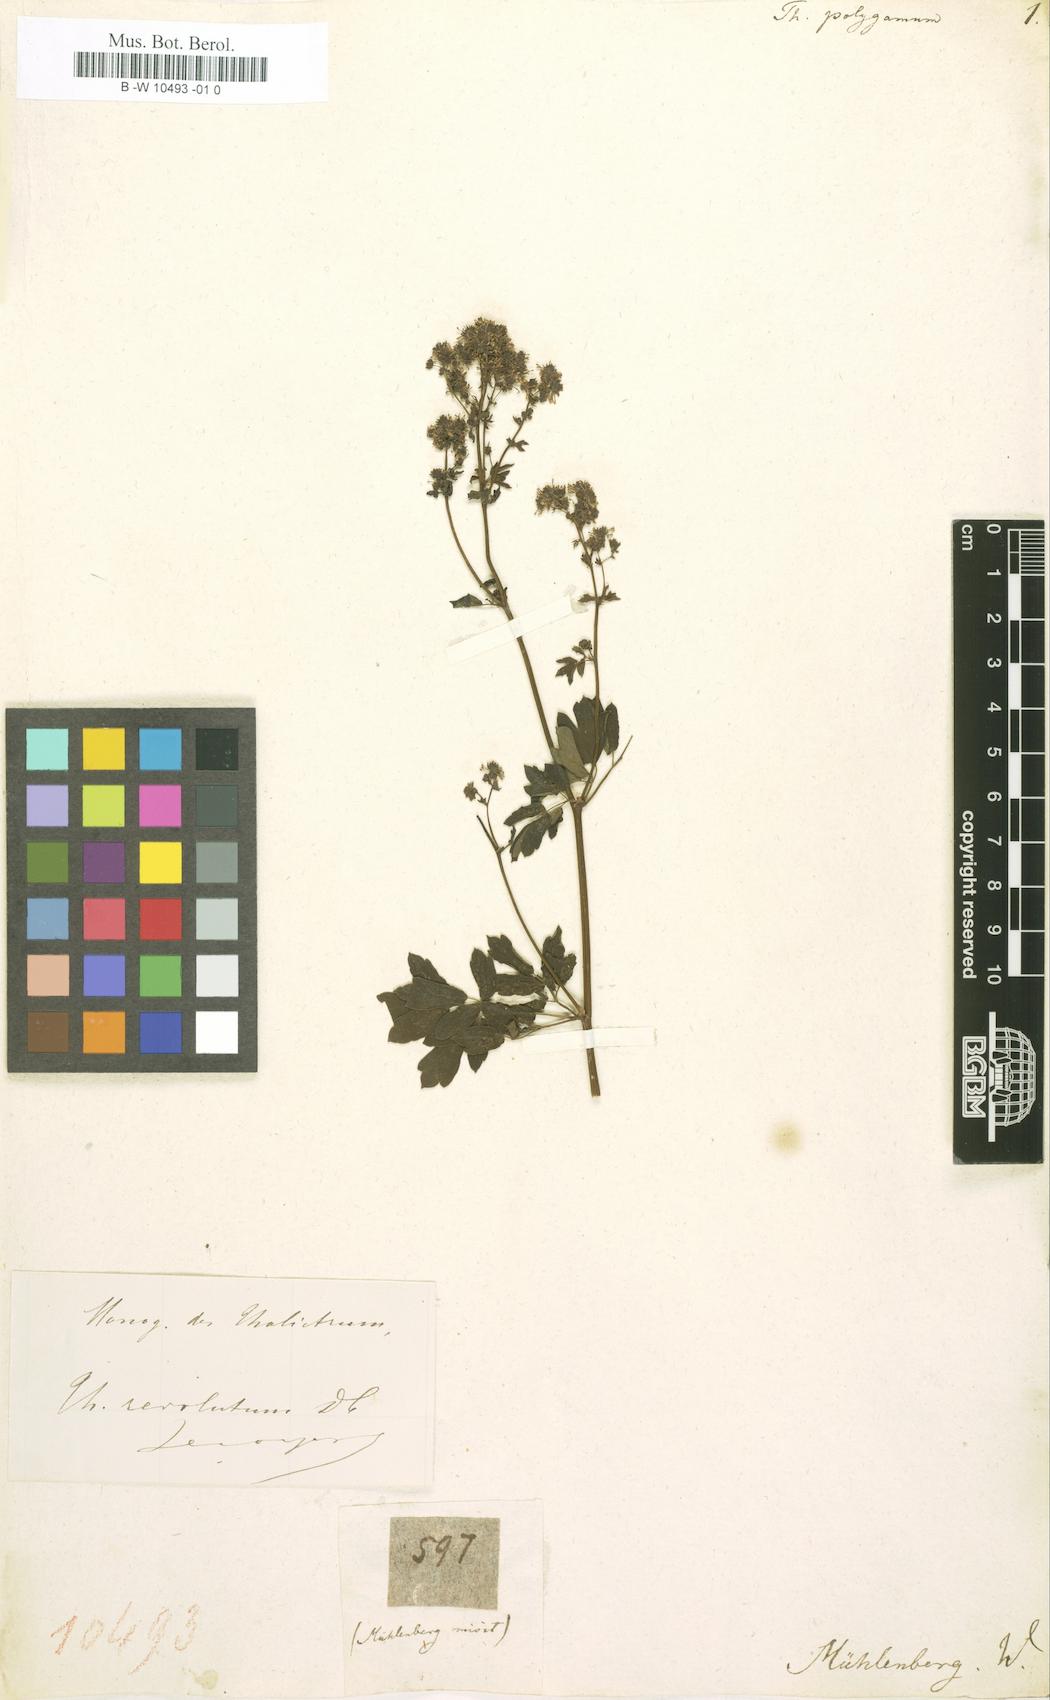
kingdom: Plantae
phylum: Tracheophyta
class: Magnoliopsida
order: Ranunculales
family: Ranunculaceae
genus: Thalictrum
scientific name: Thalictrum pubescens
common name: King-of-the-meadow
